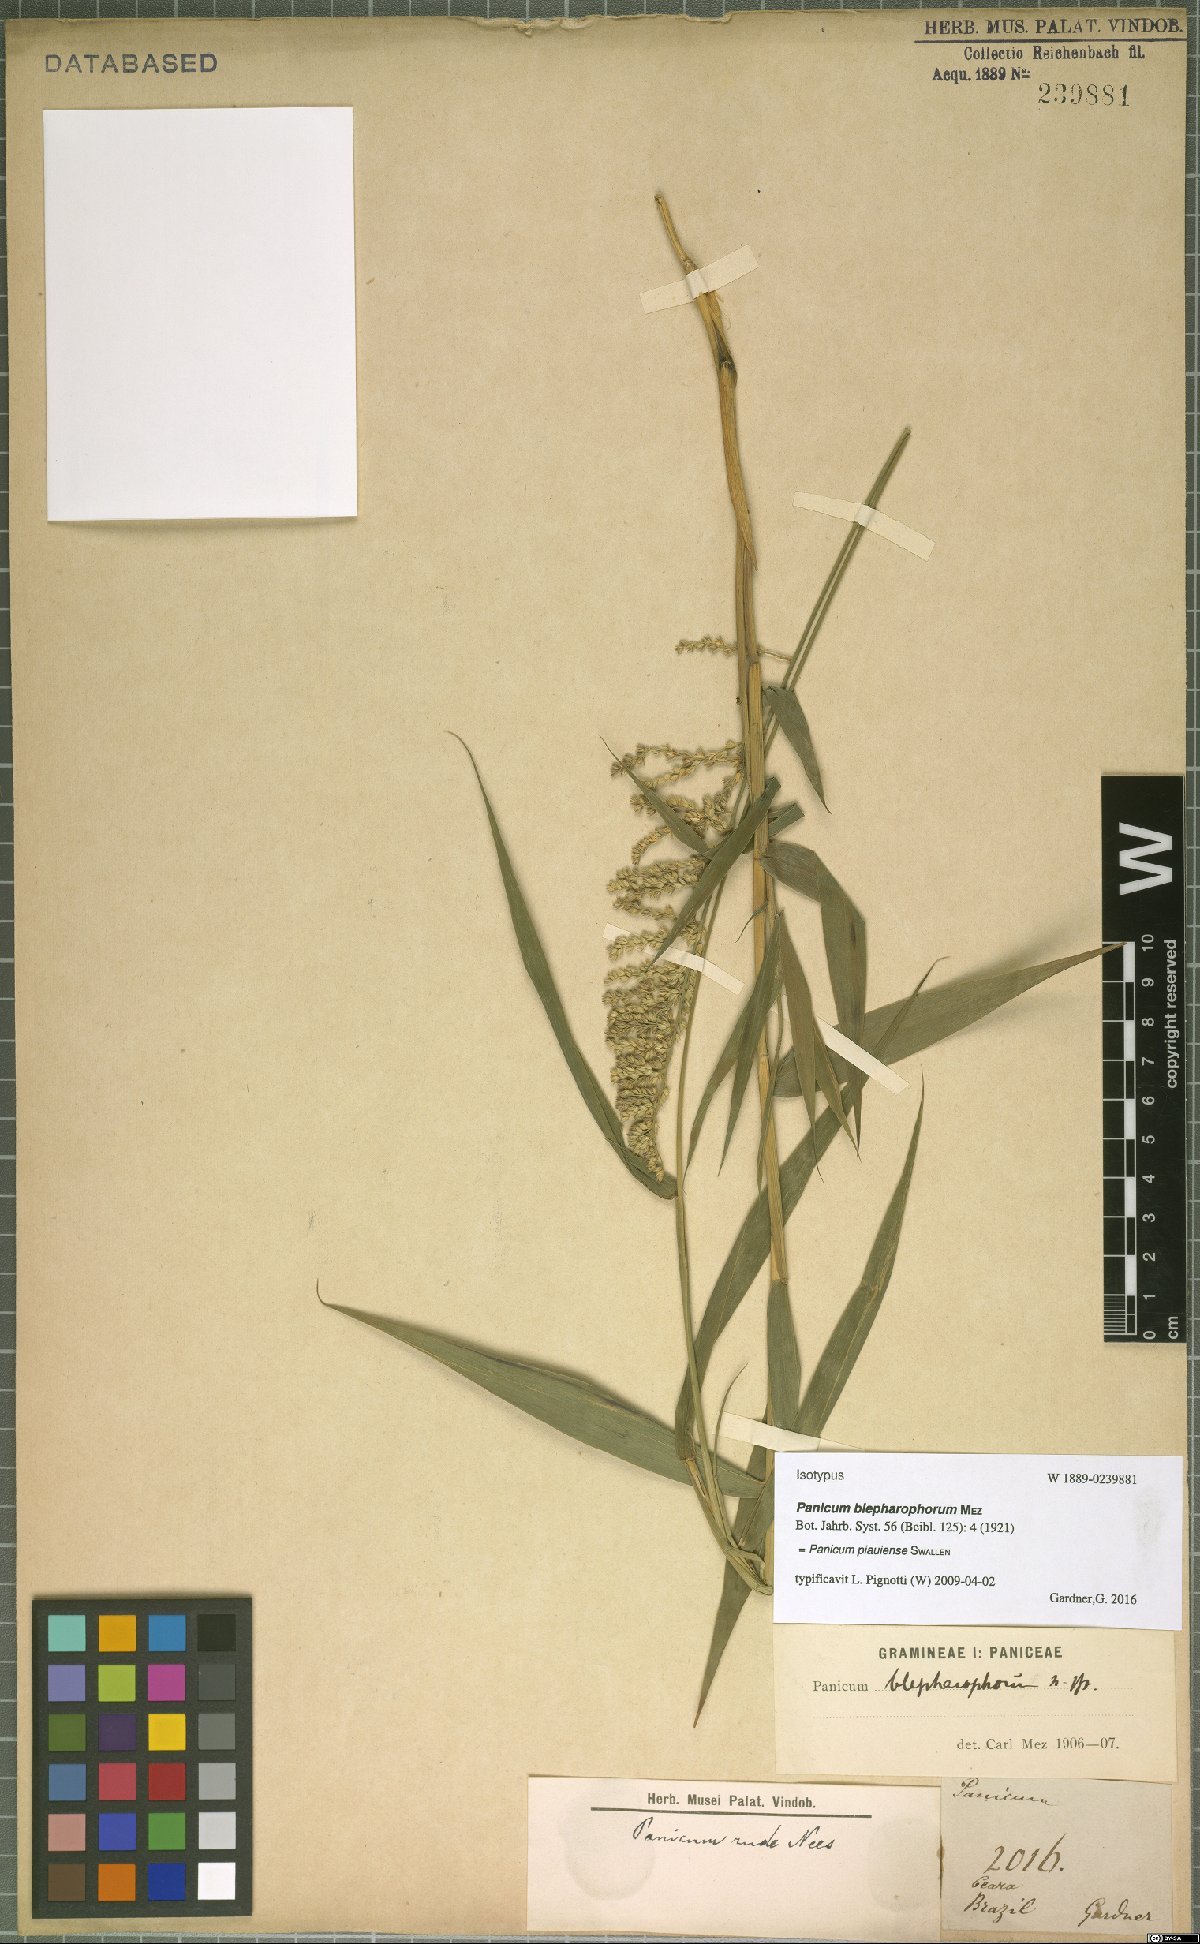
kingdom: Plantae
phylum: Tracheophyta
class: Liliopsida
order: Poales
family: Poaceae
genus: Ocellochloa
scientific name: Ocellochloa gardneri
